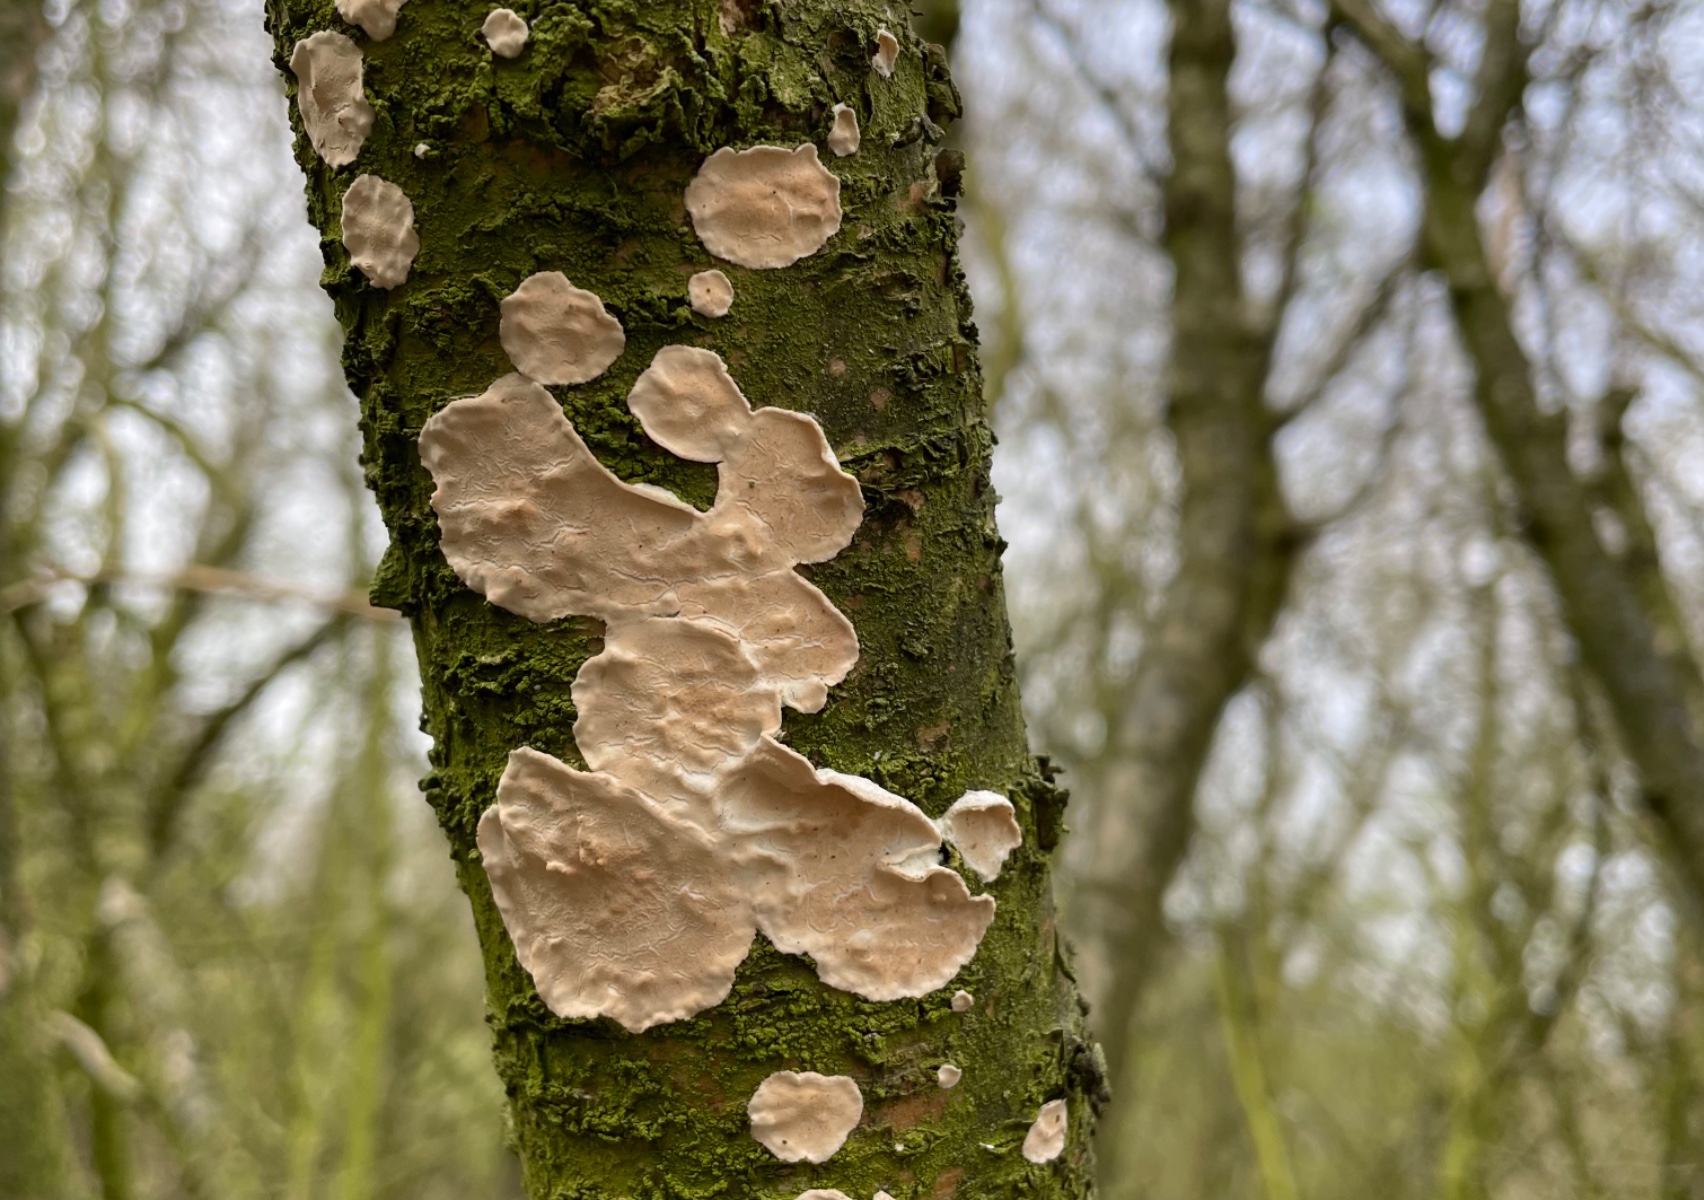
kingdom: Fungi
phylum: Basidiomycota
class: Agaricomycetes
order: Agaricales
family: Physalacriaceae
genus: Cylindrobasidium
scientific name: Cylindrobasidium evolvens
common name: sprækkehinde
